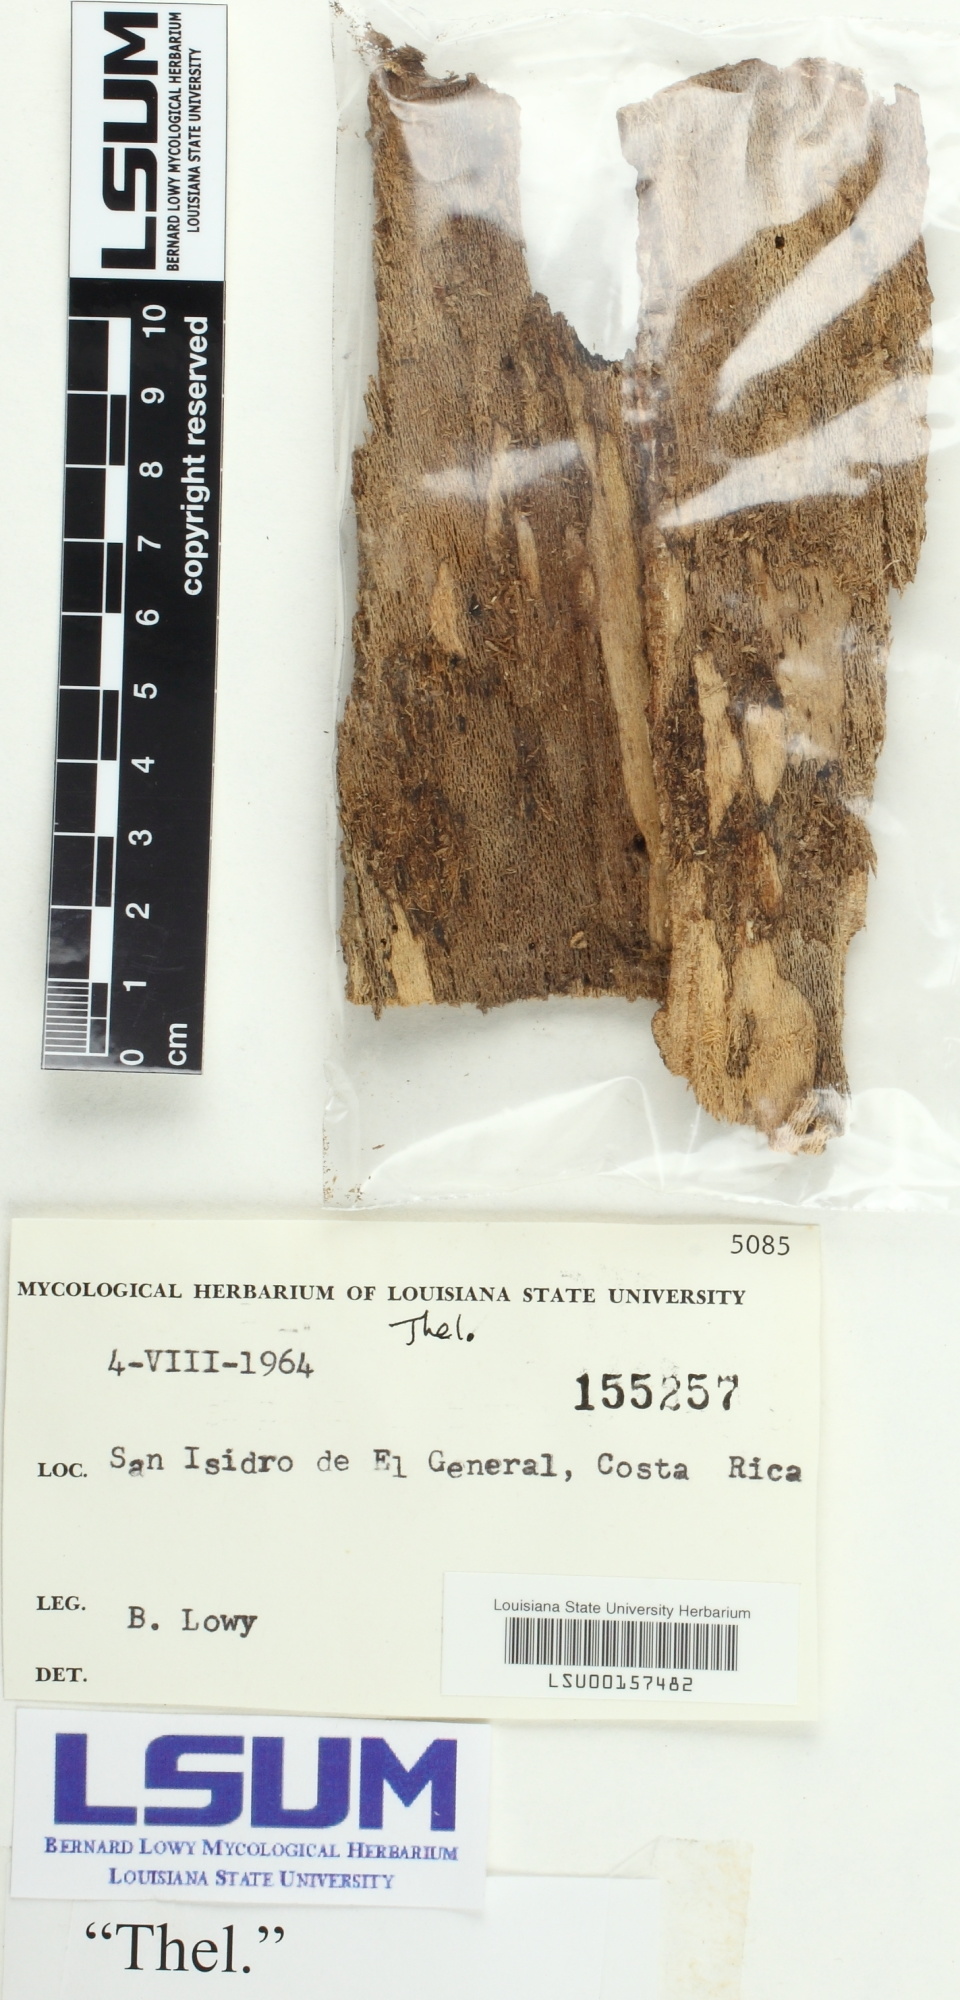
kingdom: Fungi
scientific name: Fungi
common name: Fungi
